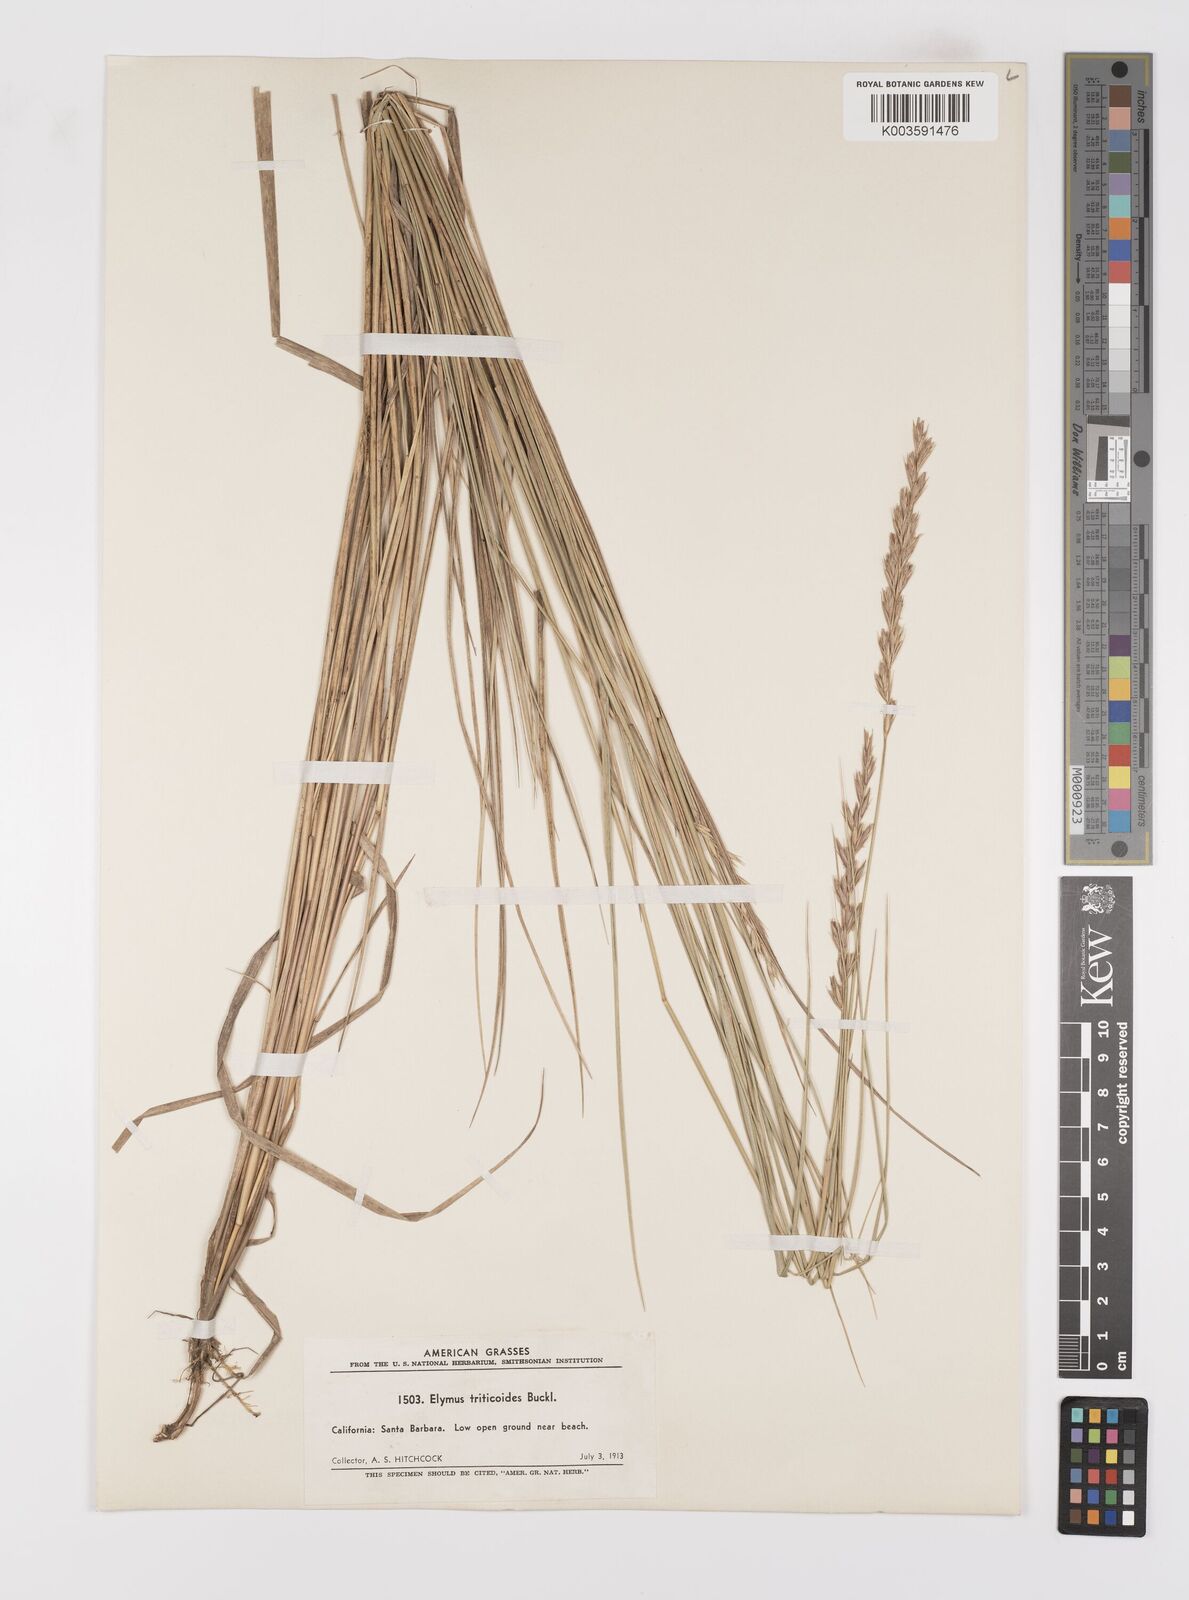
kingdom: Plantae
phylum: Tracheophyta
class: Liliopsida
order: Poales
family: Poaceae
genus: Leymus
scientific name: Leymus triticoides
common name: Beardless wild rye
